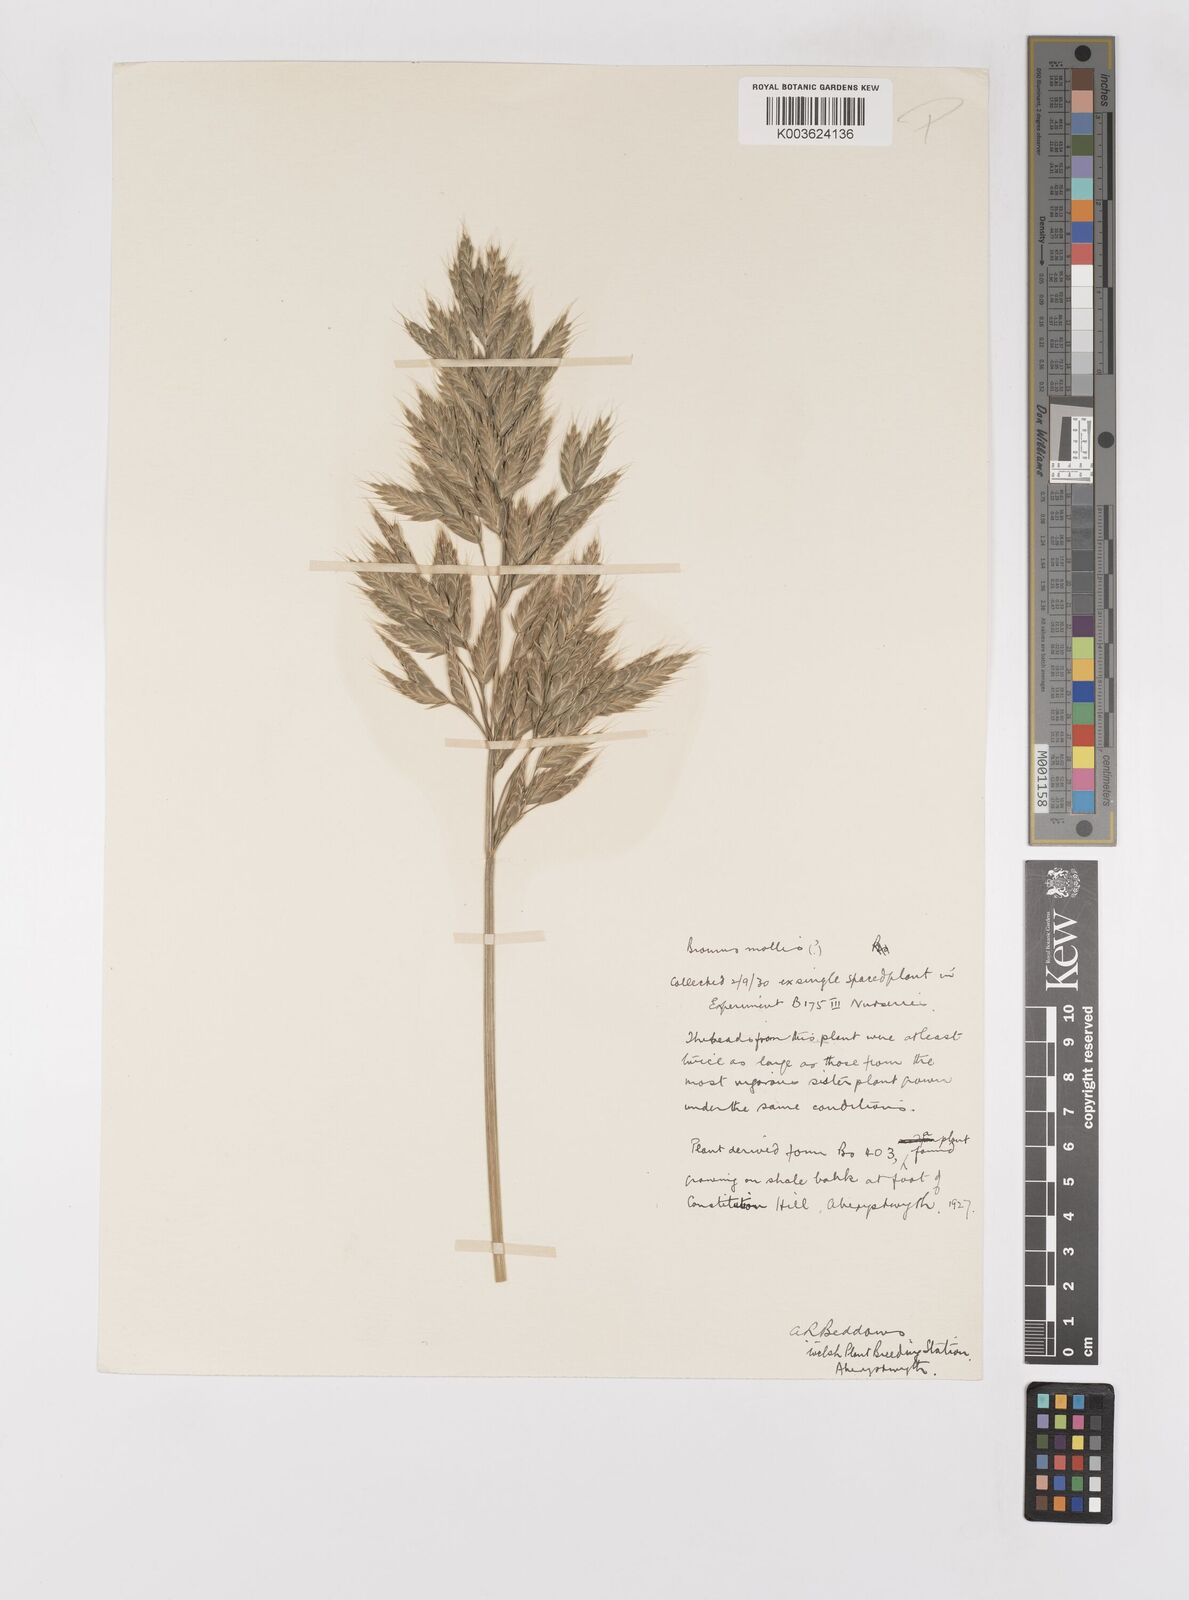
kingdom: Plantae
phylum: Tracheophyta
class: Liliopsida
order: Poales
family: Poaceae
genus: Bromus
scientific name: Bromus hordeaceus
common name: Soft brome
